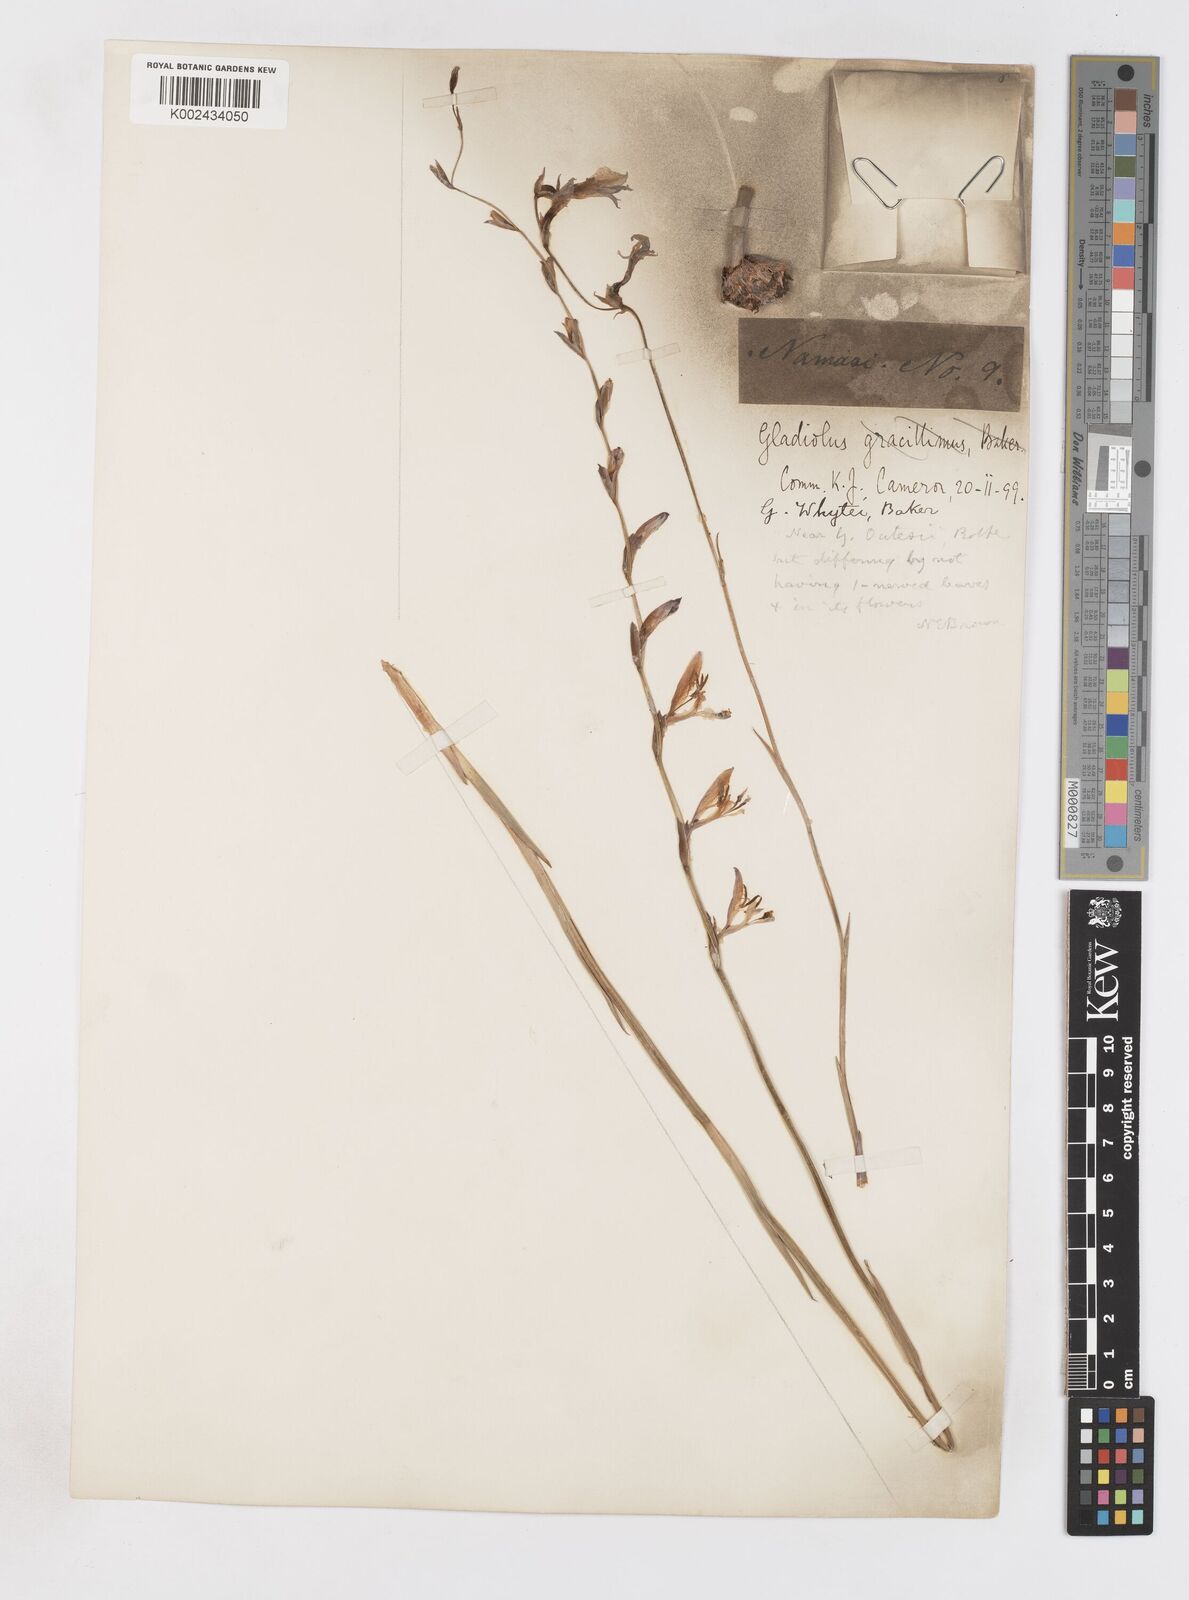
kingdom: Plantae
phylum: Tracheophyta
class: Liliopsida
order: Asparagales
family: Iridaceae
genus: Gladiolus
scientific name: Gladiolus atropurpureus
